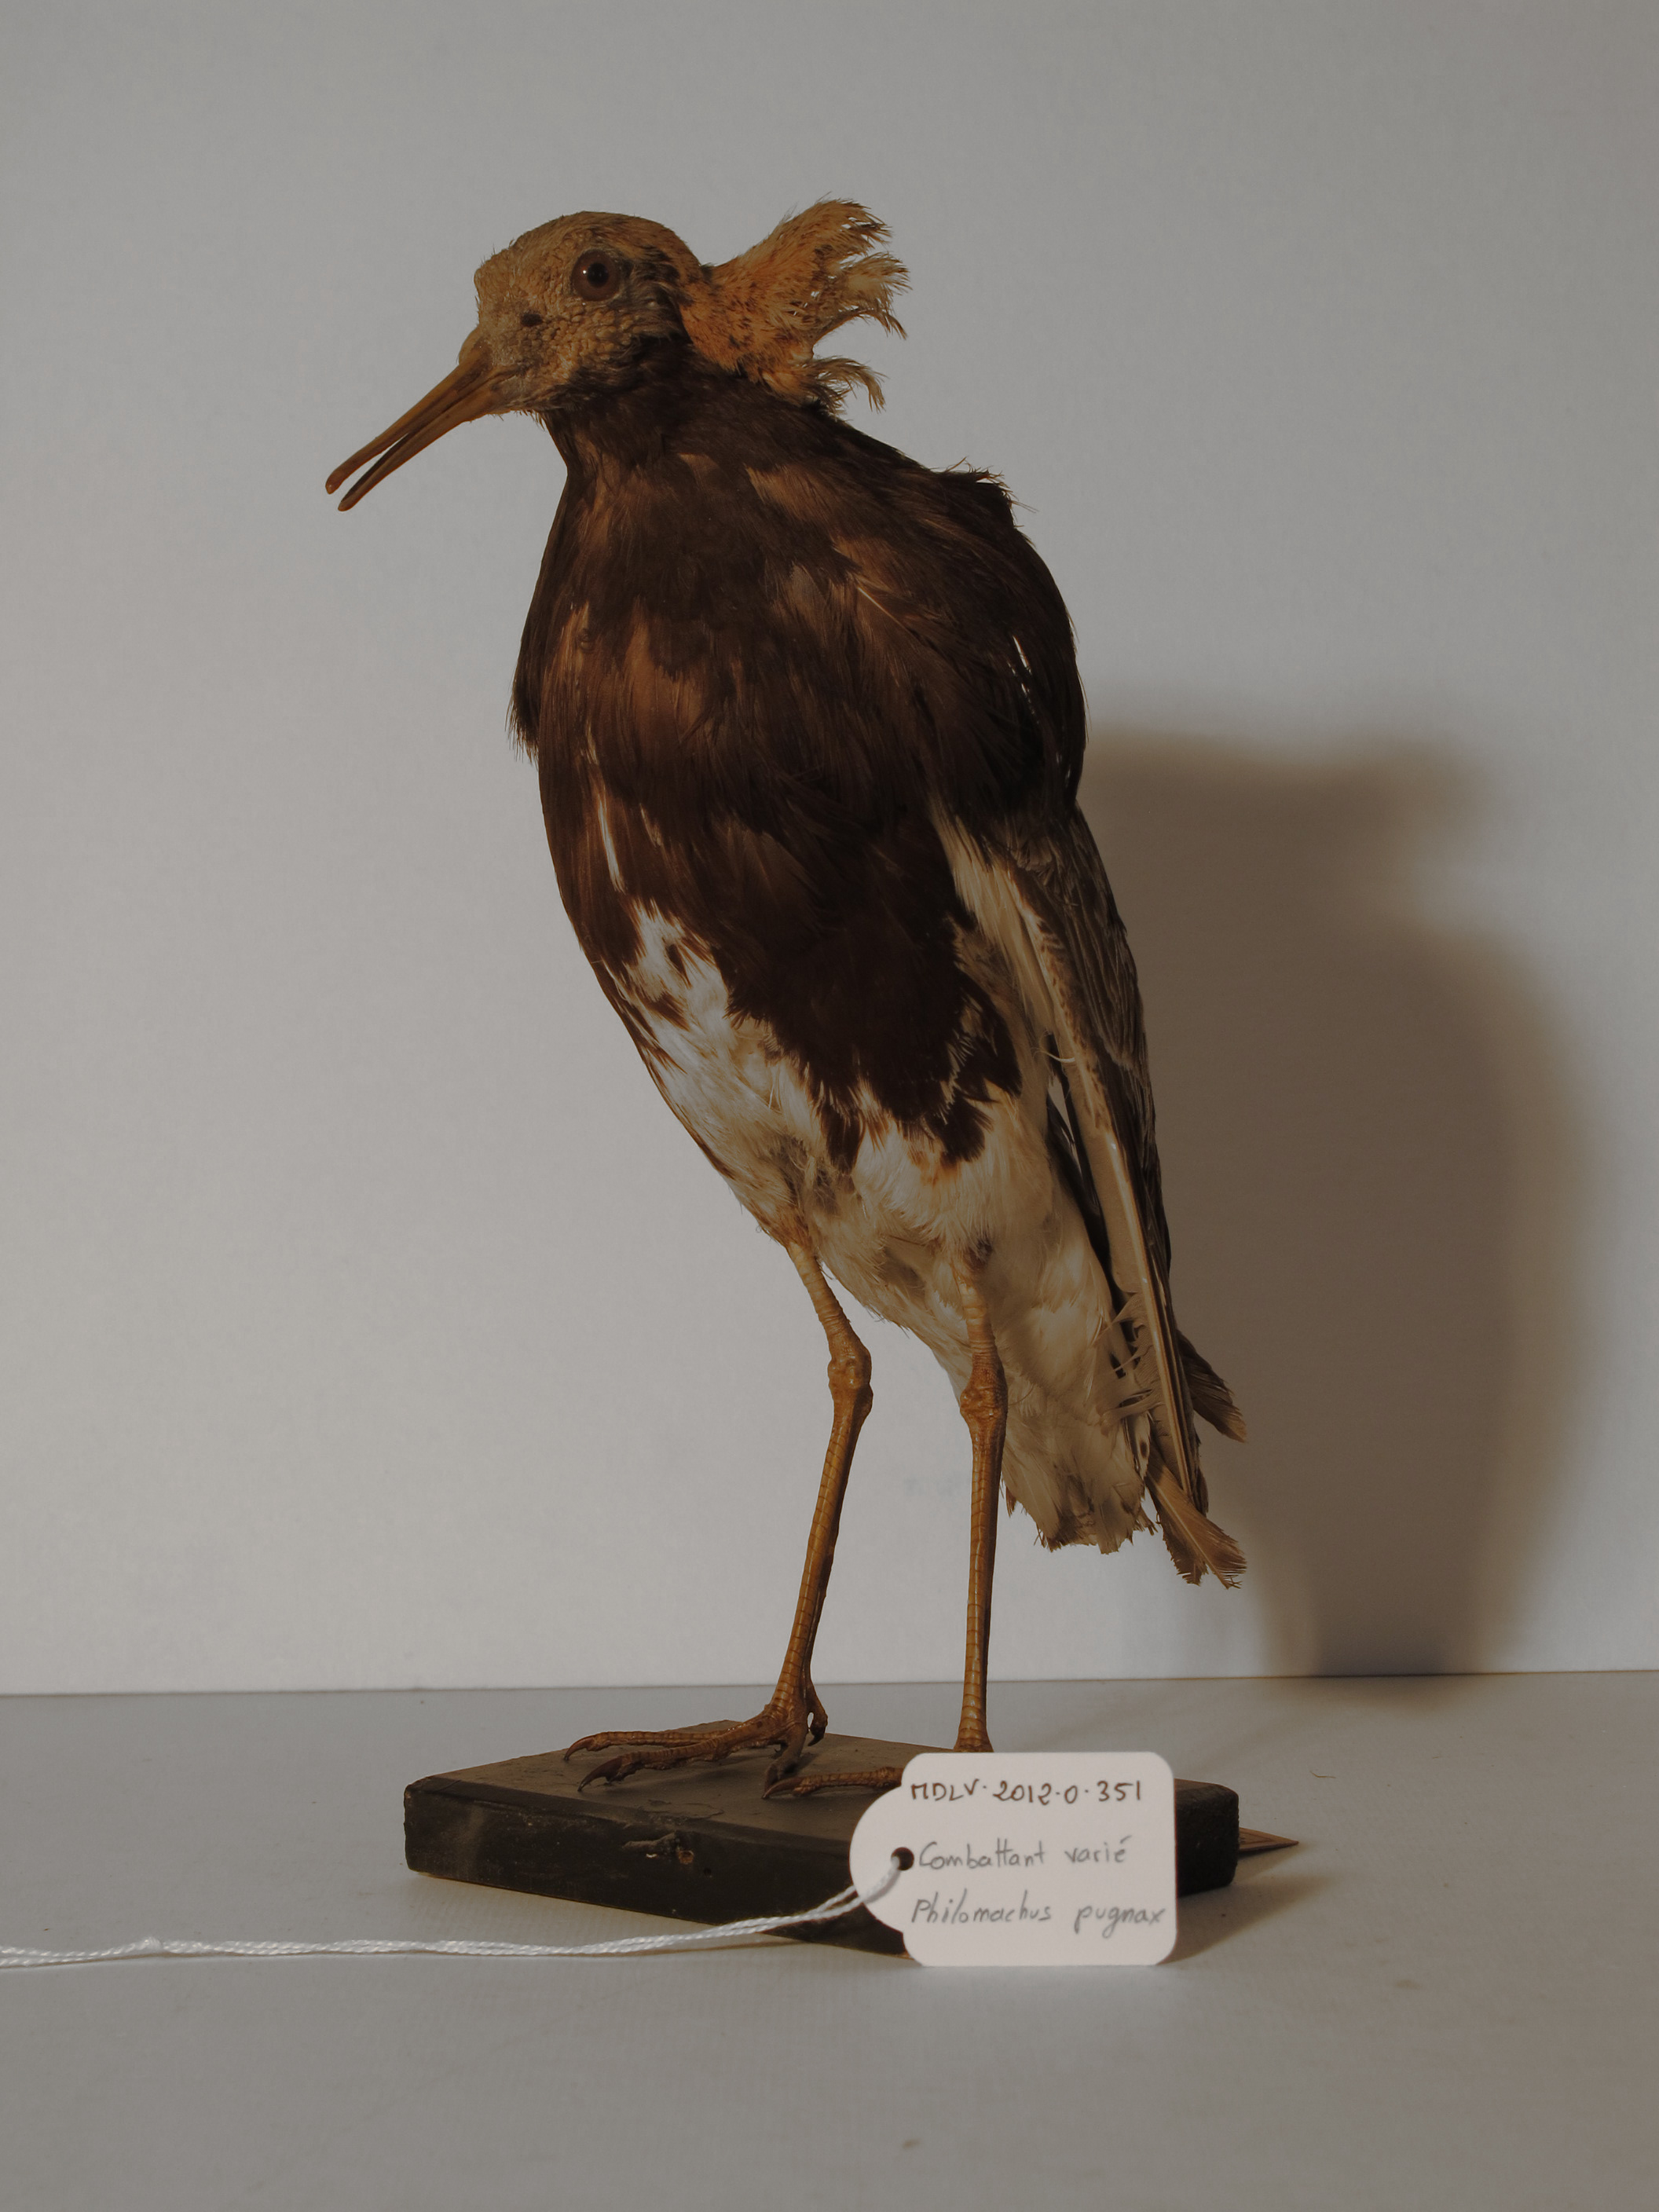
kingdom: Animalia
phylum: Chordata
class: Aves
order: Charadriiformes
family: Scolopacidae
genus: Calidris
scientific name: Calidris pugnax
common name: Ruff
